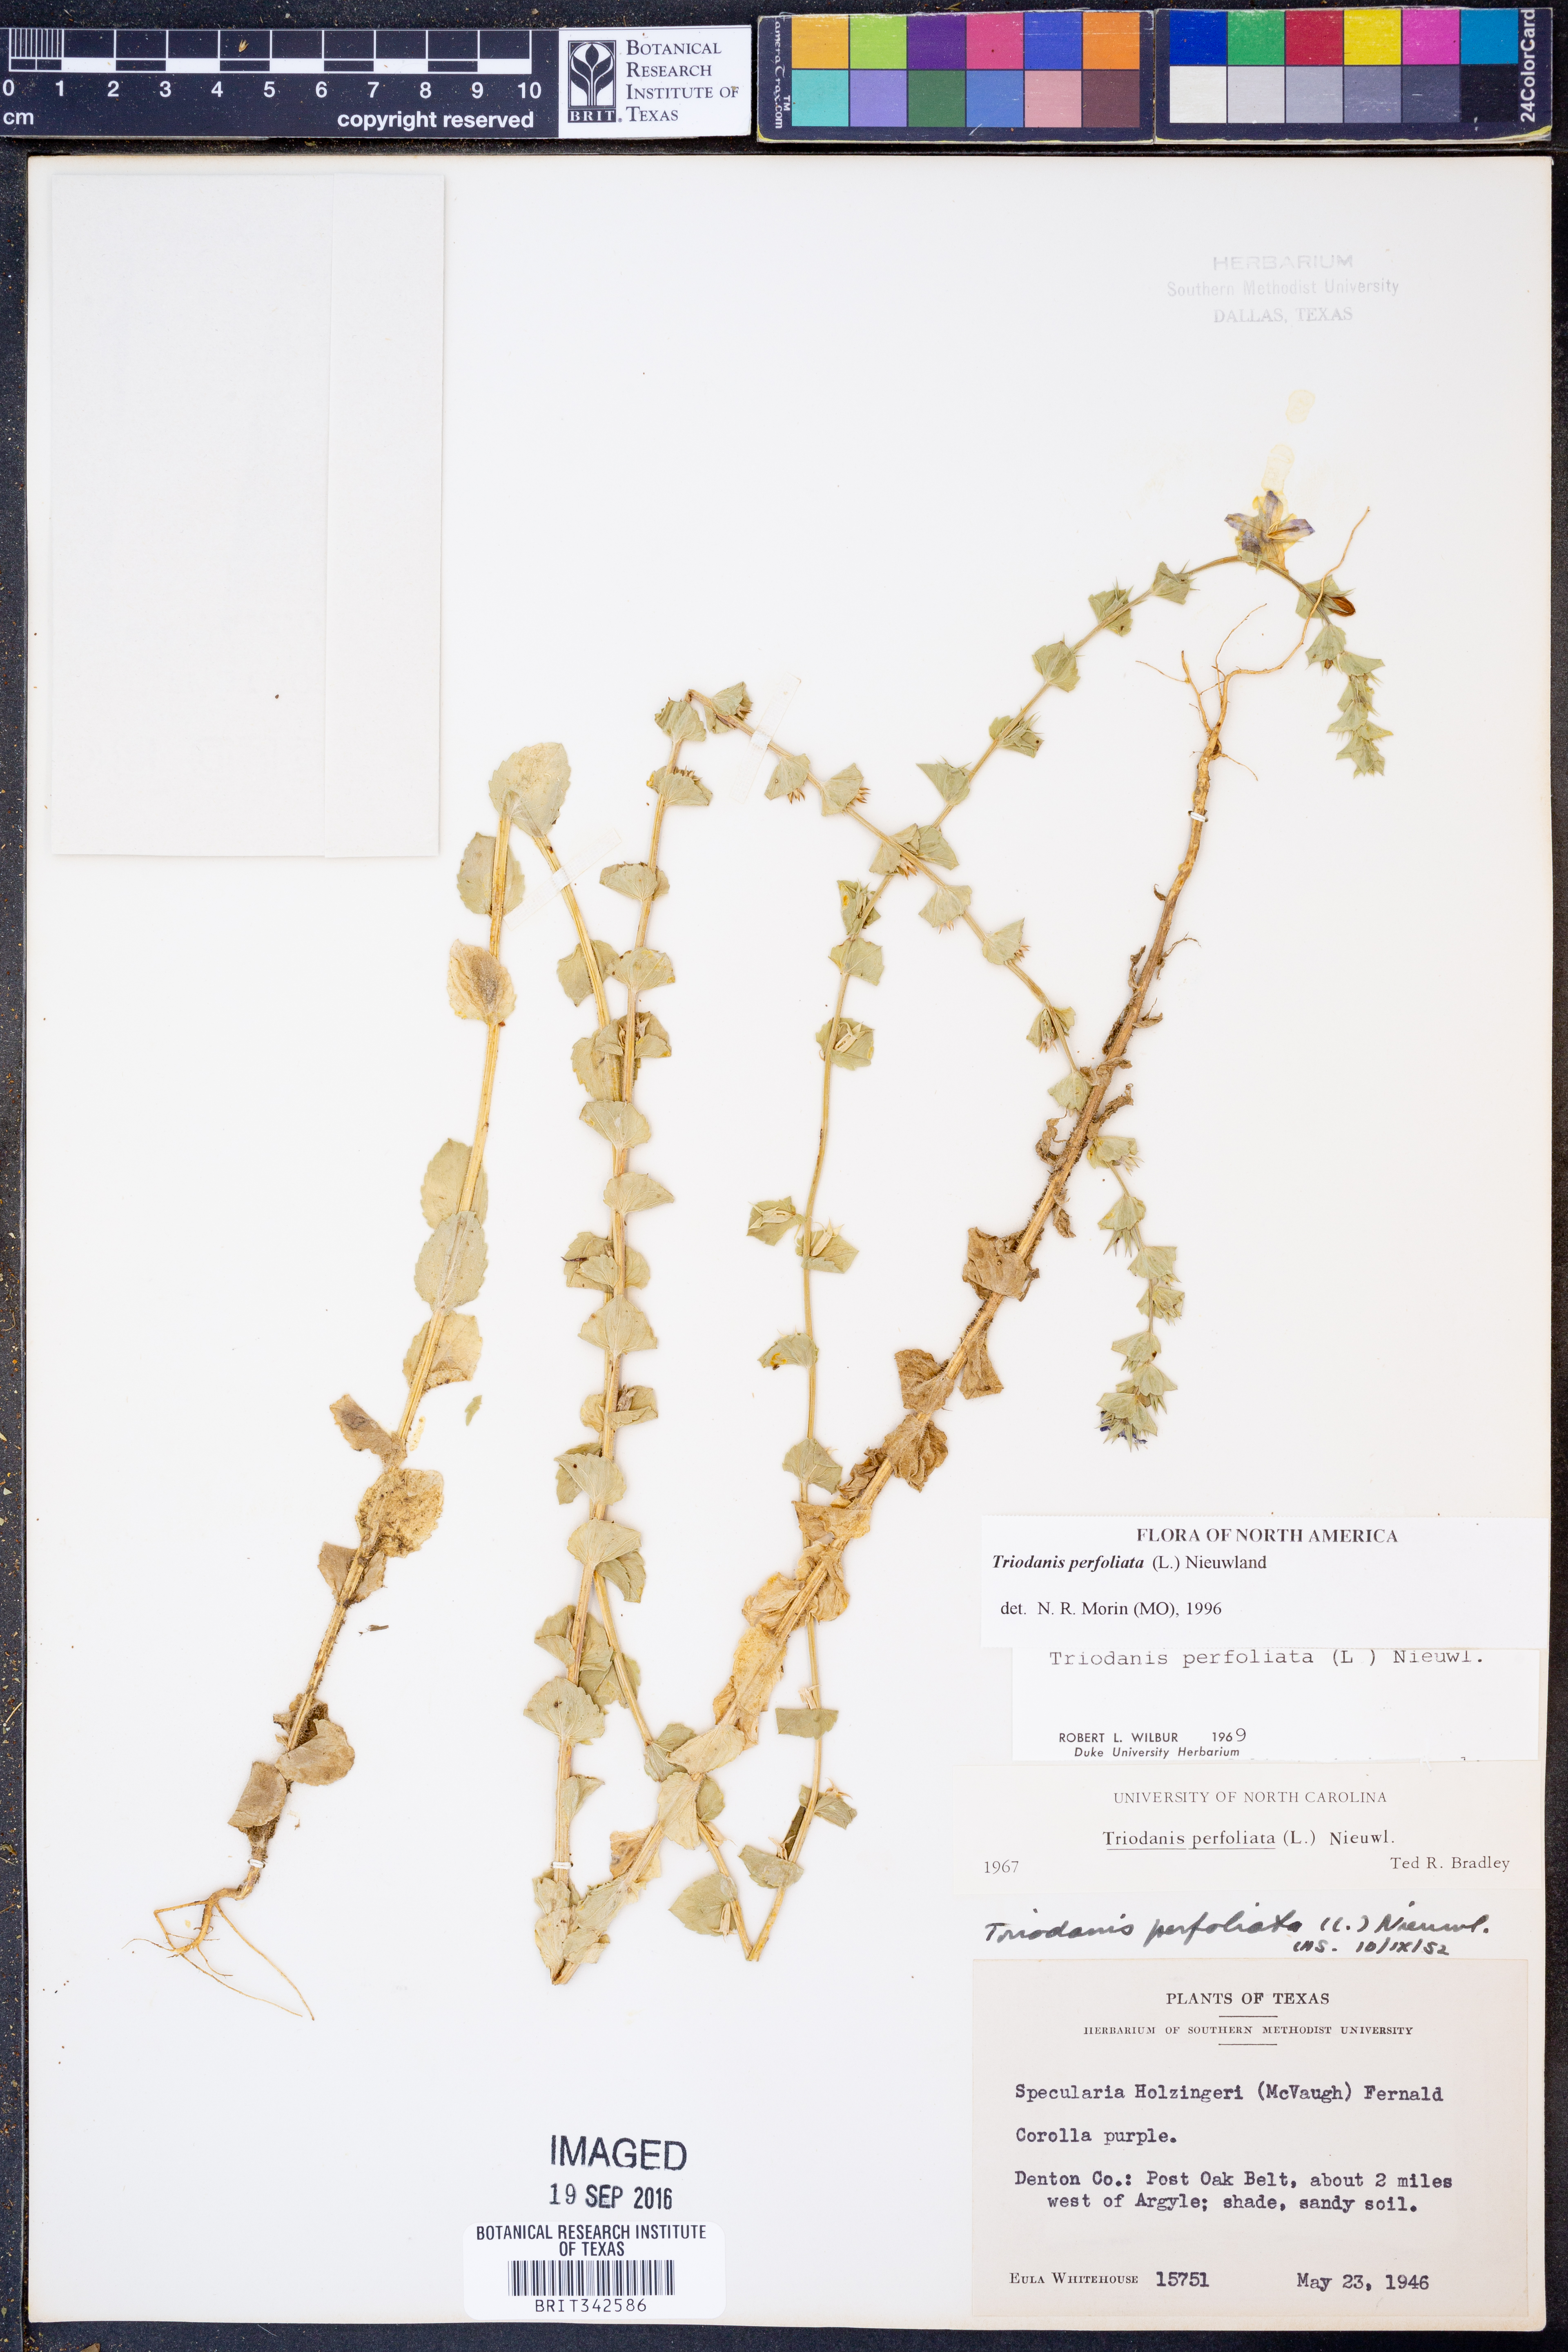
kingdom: Plantae
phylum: Tracheophyta
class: Magnoliopsida
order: Asterales
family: Campanulaceae
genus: Triodanis
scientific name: Triodanis perfoliata
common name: Clasping venus' looking-glass
